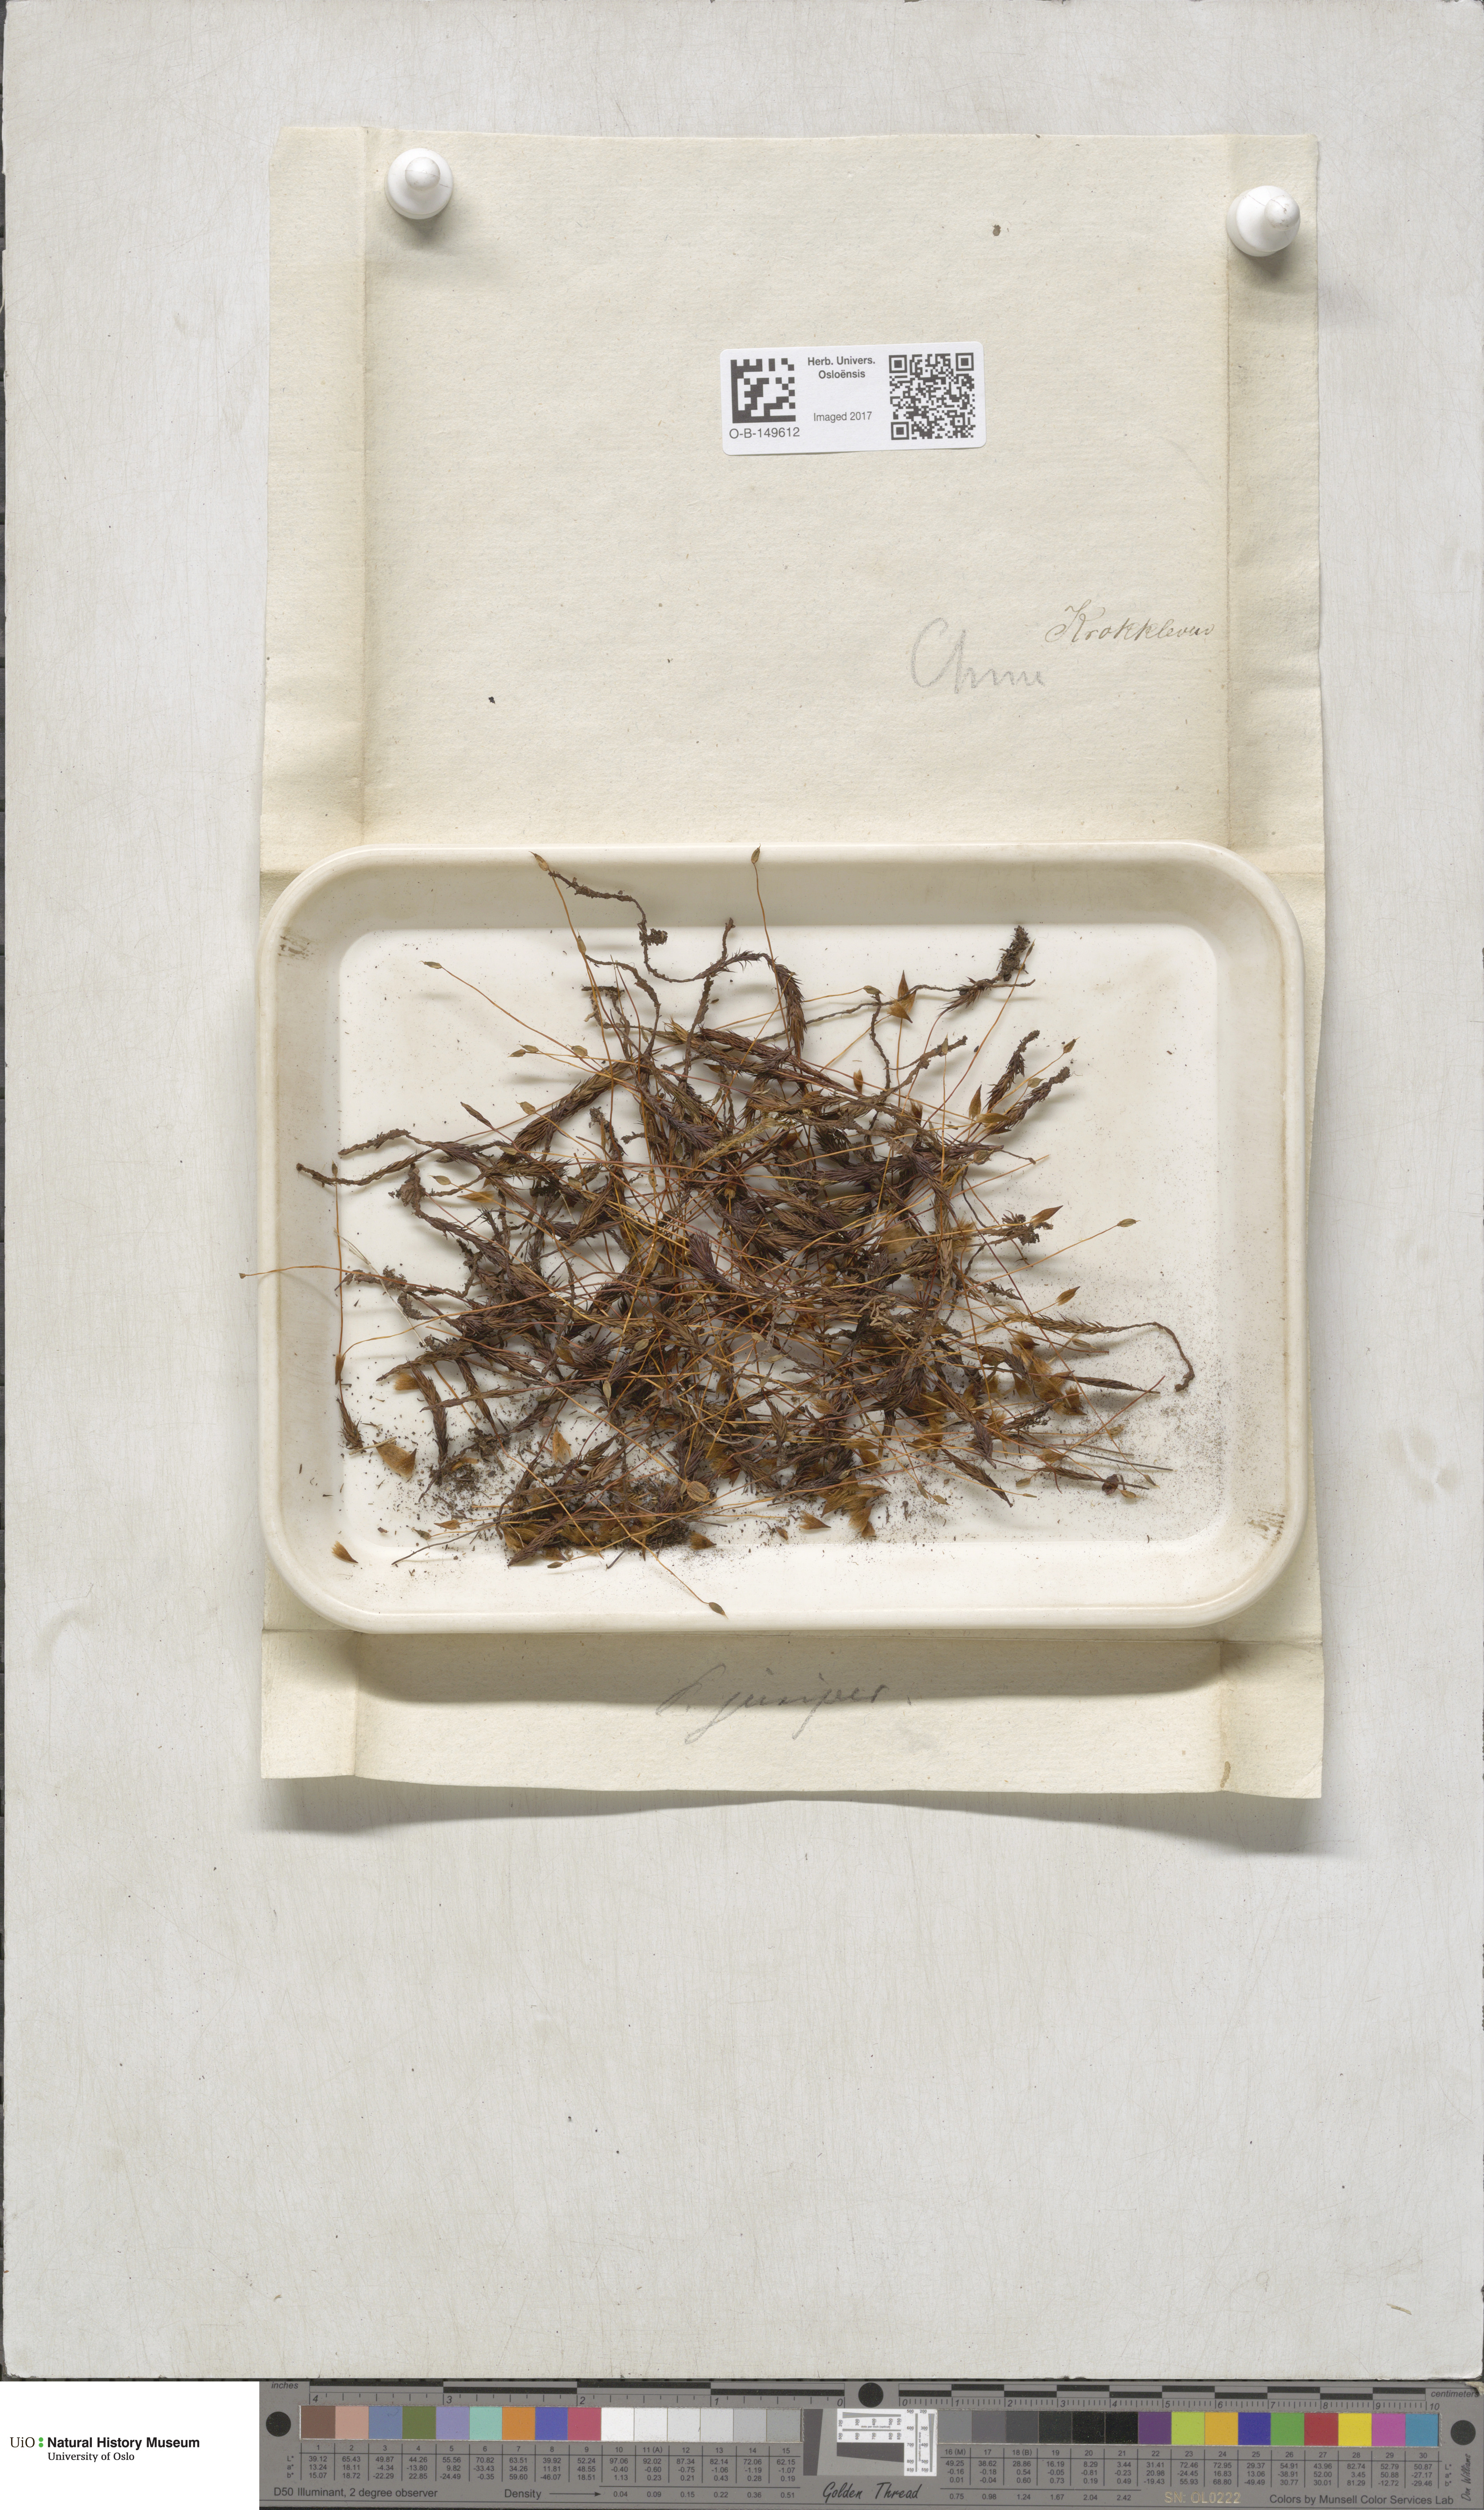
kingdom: Plantae
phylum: Bryophyta
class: Polytrichopsida
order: Polytrichales
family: Polytrichaceae
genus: Polytrichum
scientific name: Polytrichum juniperinum
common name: Juniper haircap moss
